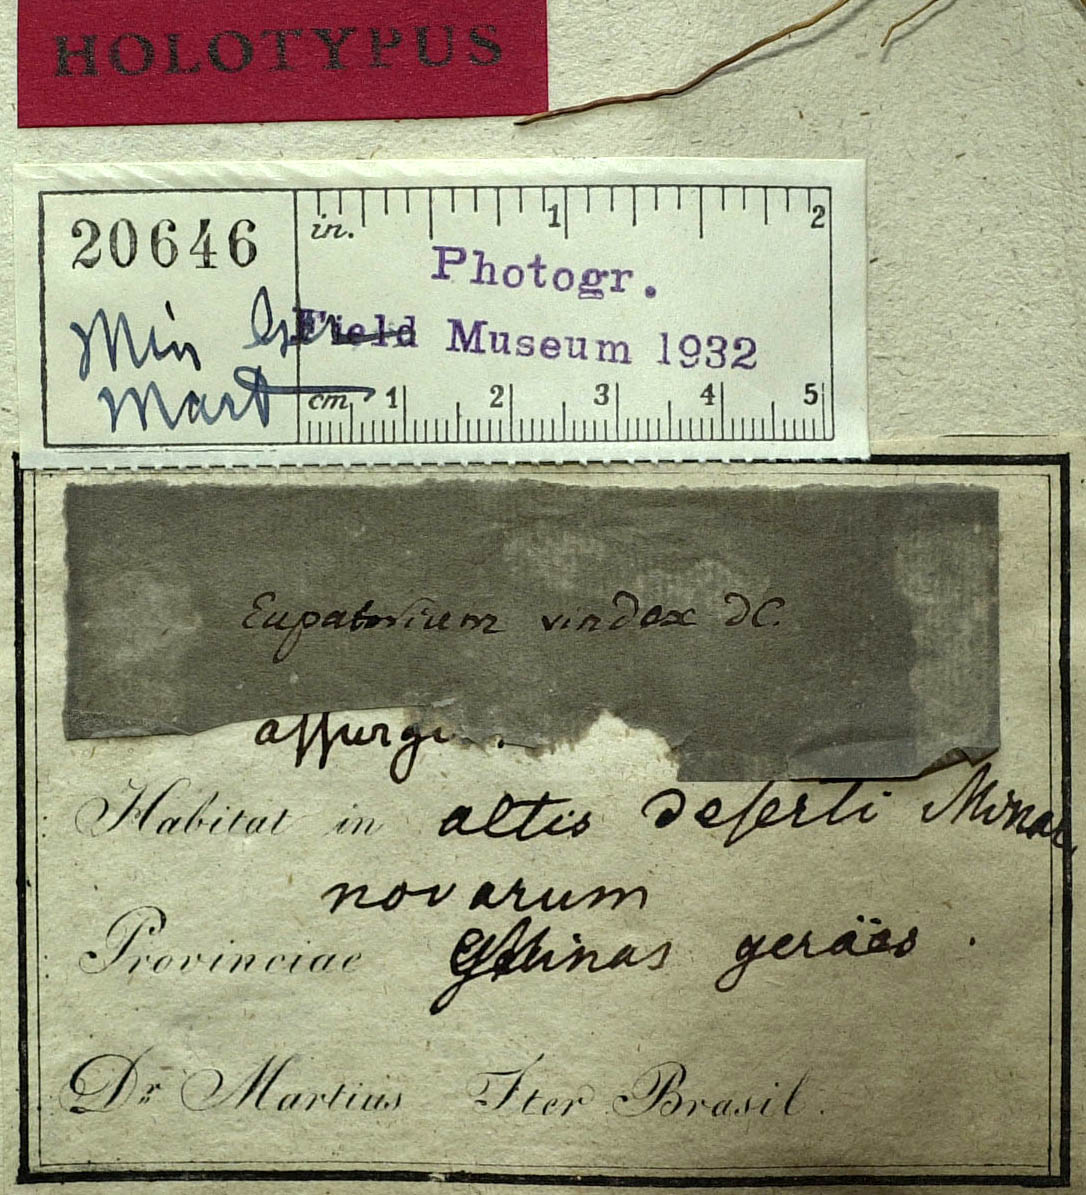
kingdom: Plantae
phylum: Tracheophyta
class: Magnoliopsida
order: Asterales
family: Asteraceae
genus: Chromolaena
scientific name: Chromolaena vindex
